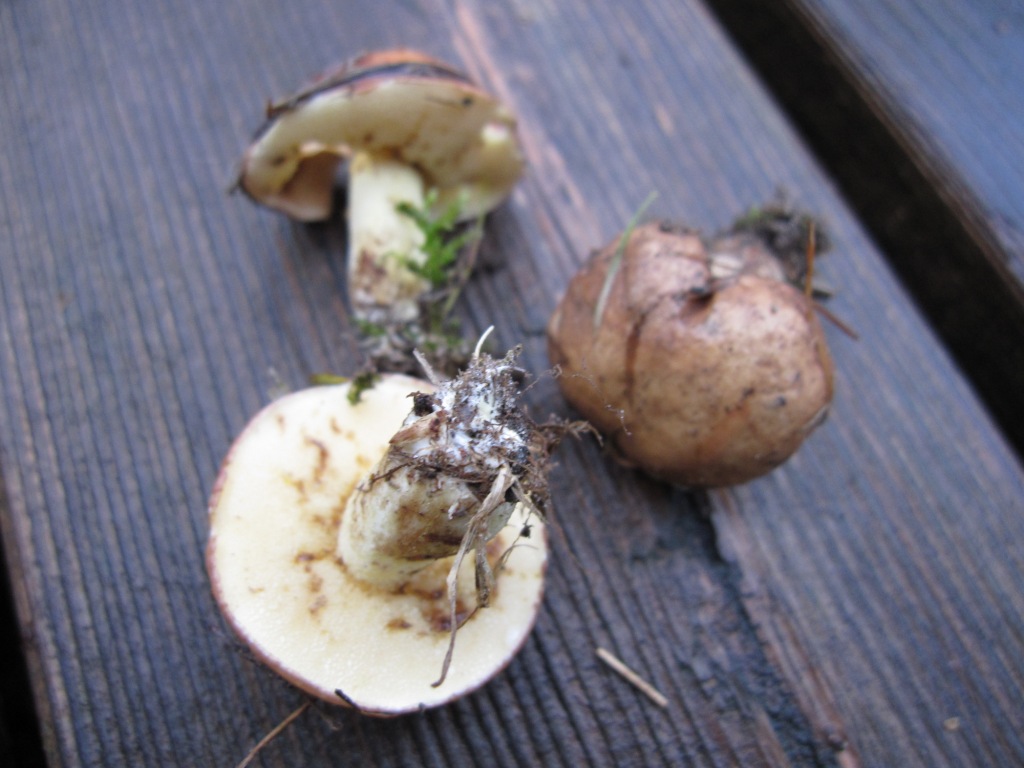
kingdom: Fungi
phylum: Basidiomycota
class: Agaricomycetes
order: Boletales
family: Suillaceae
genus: Suillus
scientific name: Suillus granulatus
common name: kornet slimrørhat
